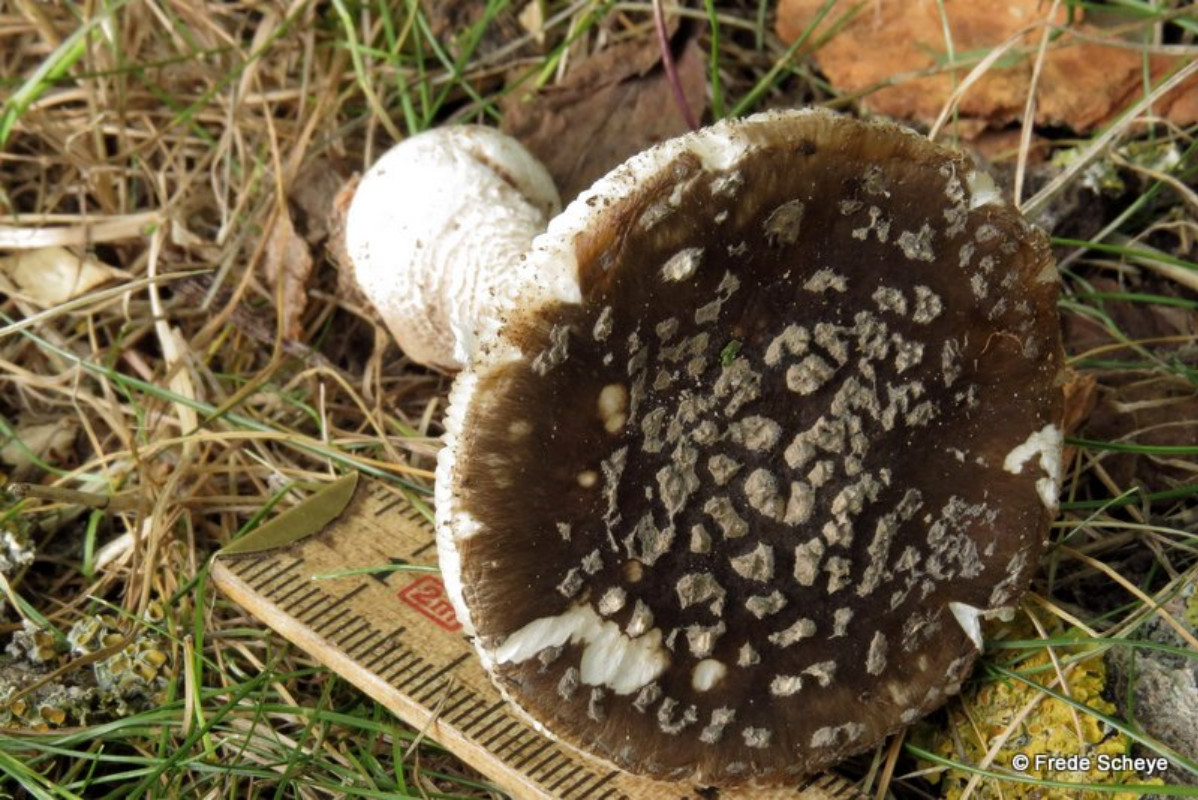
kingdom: Fungi
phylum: Basidiomycota
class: Agaricomycetes
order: Agaricales
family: Amanitaceae
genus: Amanita
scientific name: Amanita pantherina
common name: panter-fluesvamp
